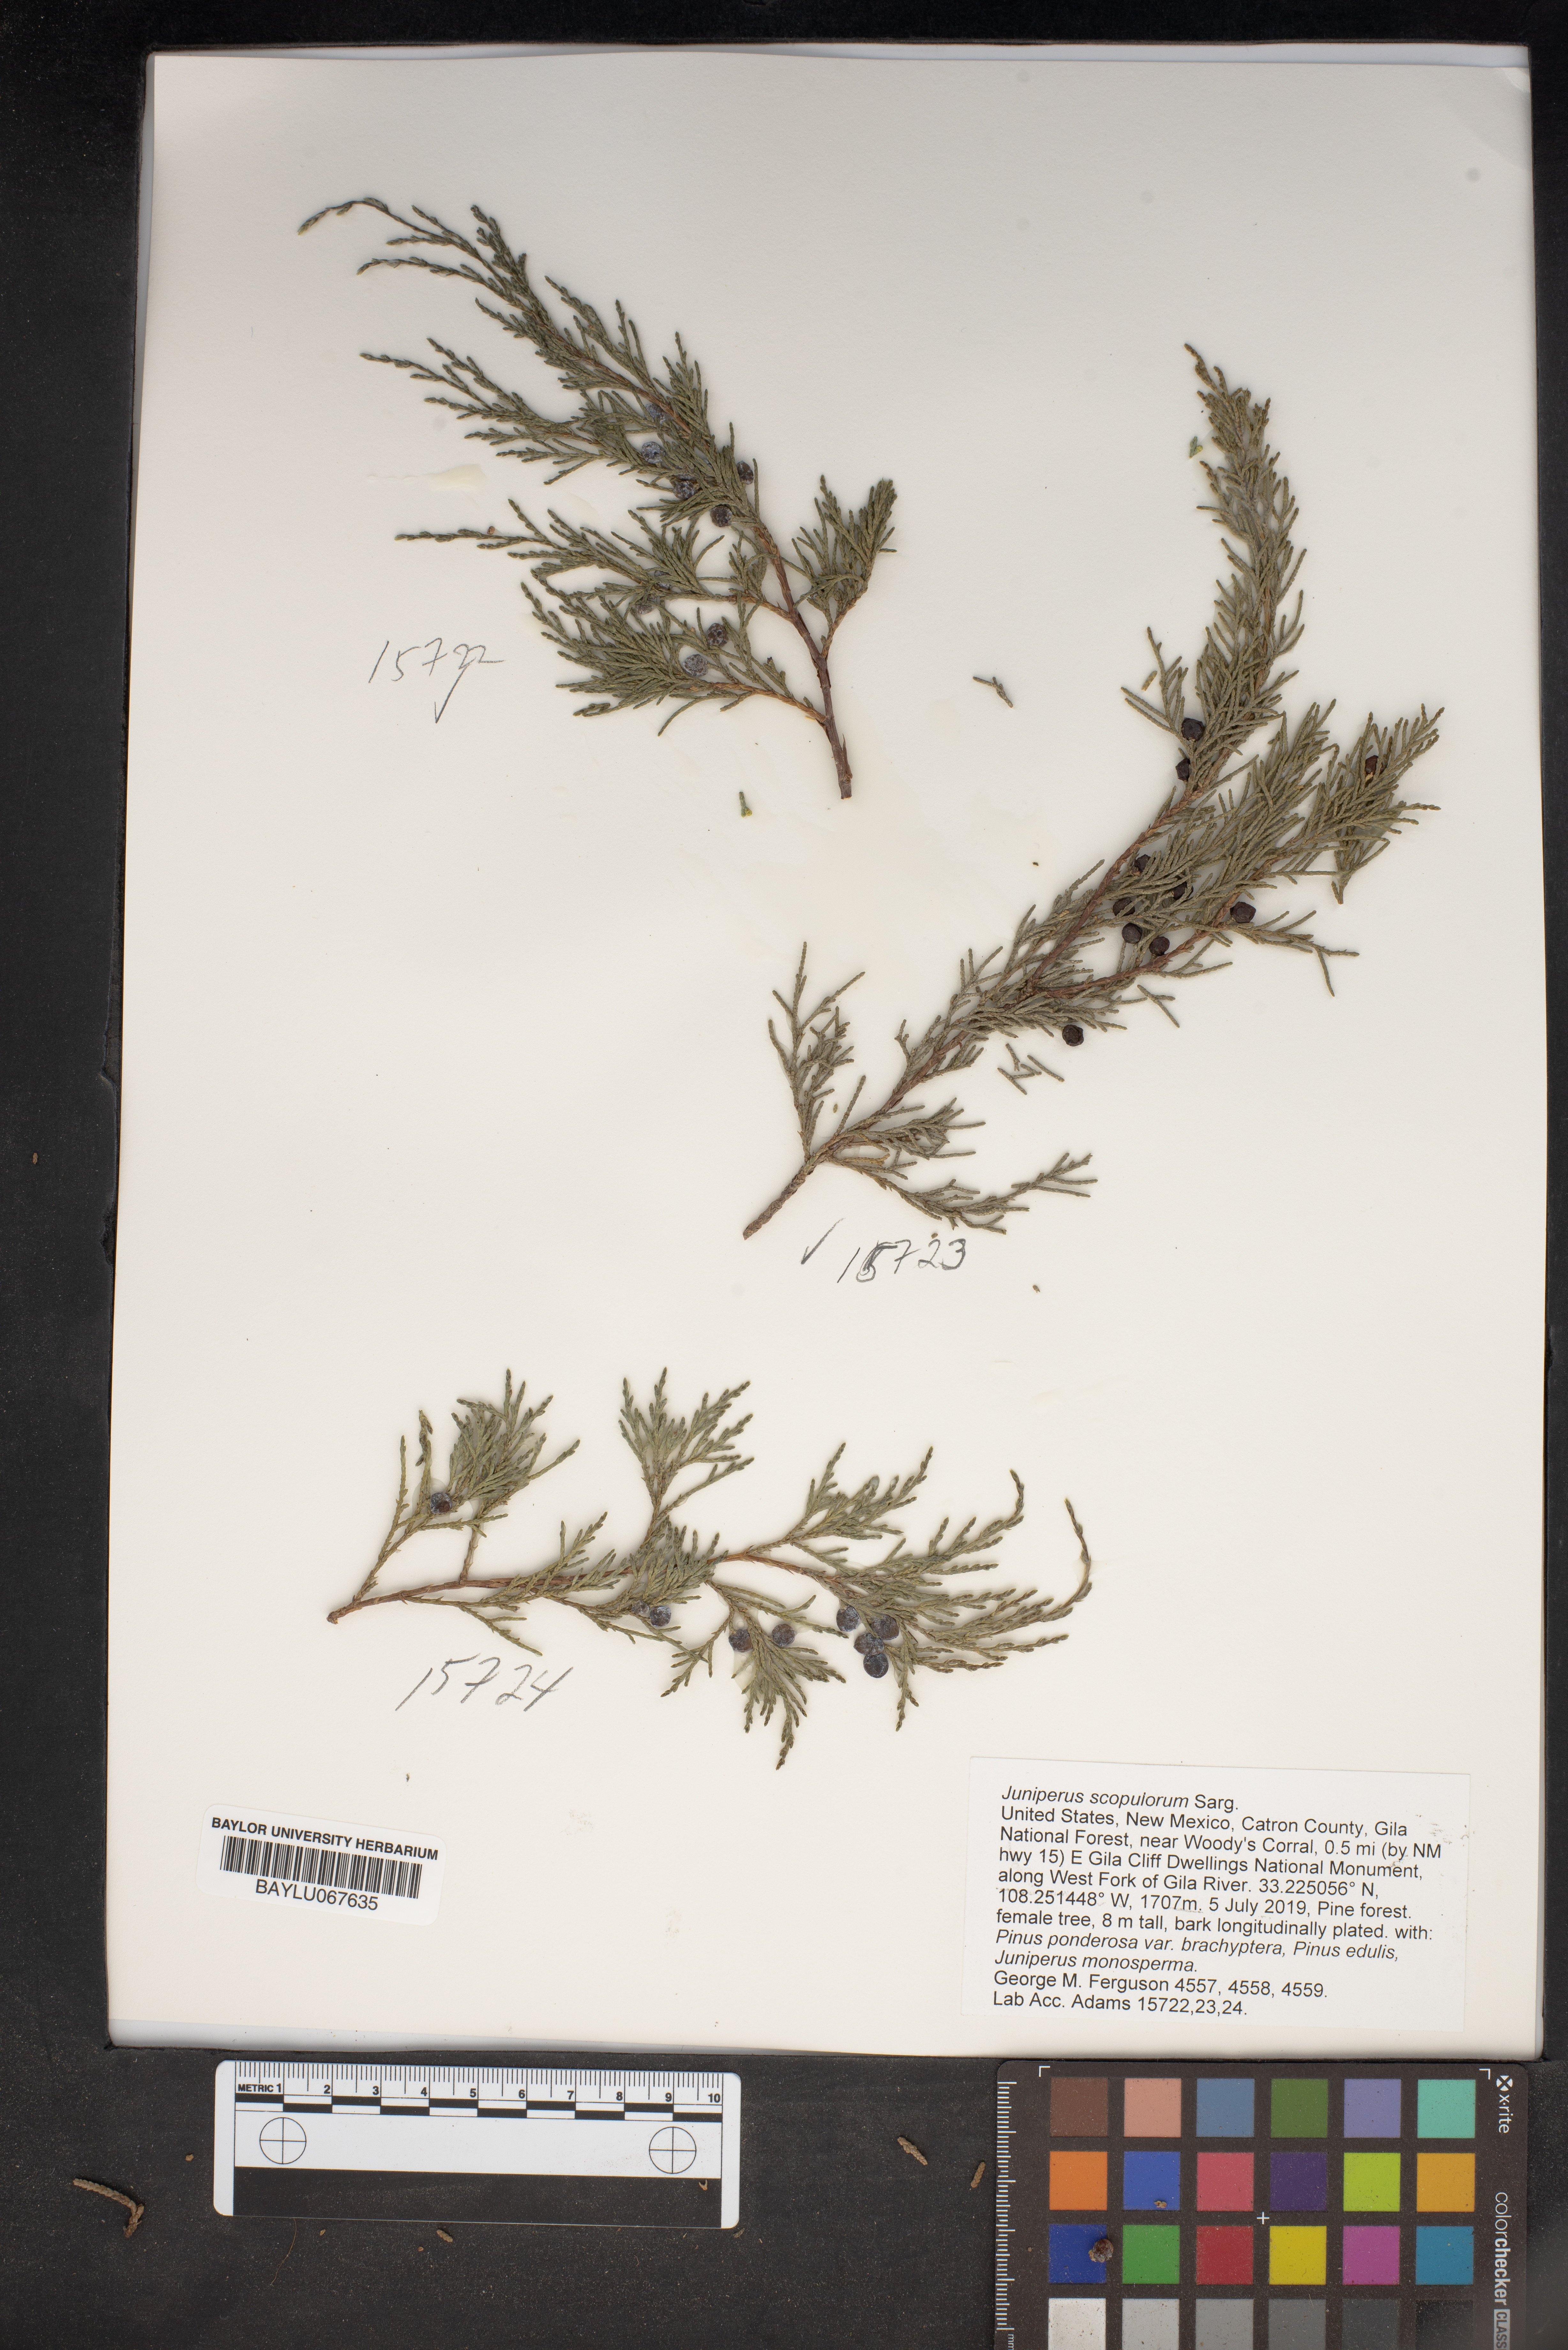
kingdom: Plantae
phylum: Tracheophyta
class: Pinopsida
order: Pinales
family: Cupressaceae
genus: Juniperus
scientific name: Juniperus scopulorum
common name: Rocky mountain juniper
